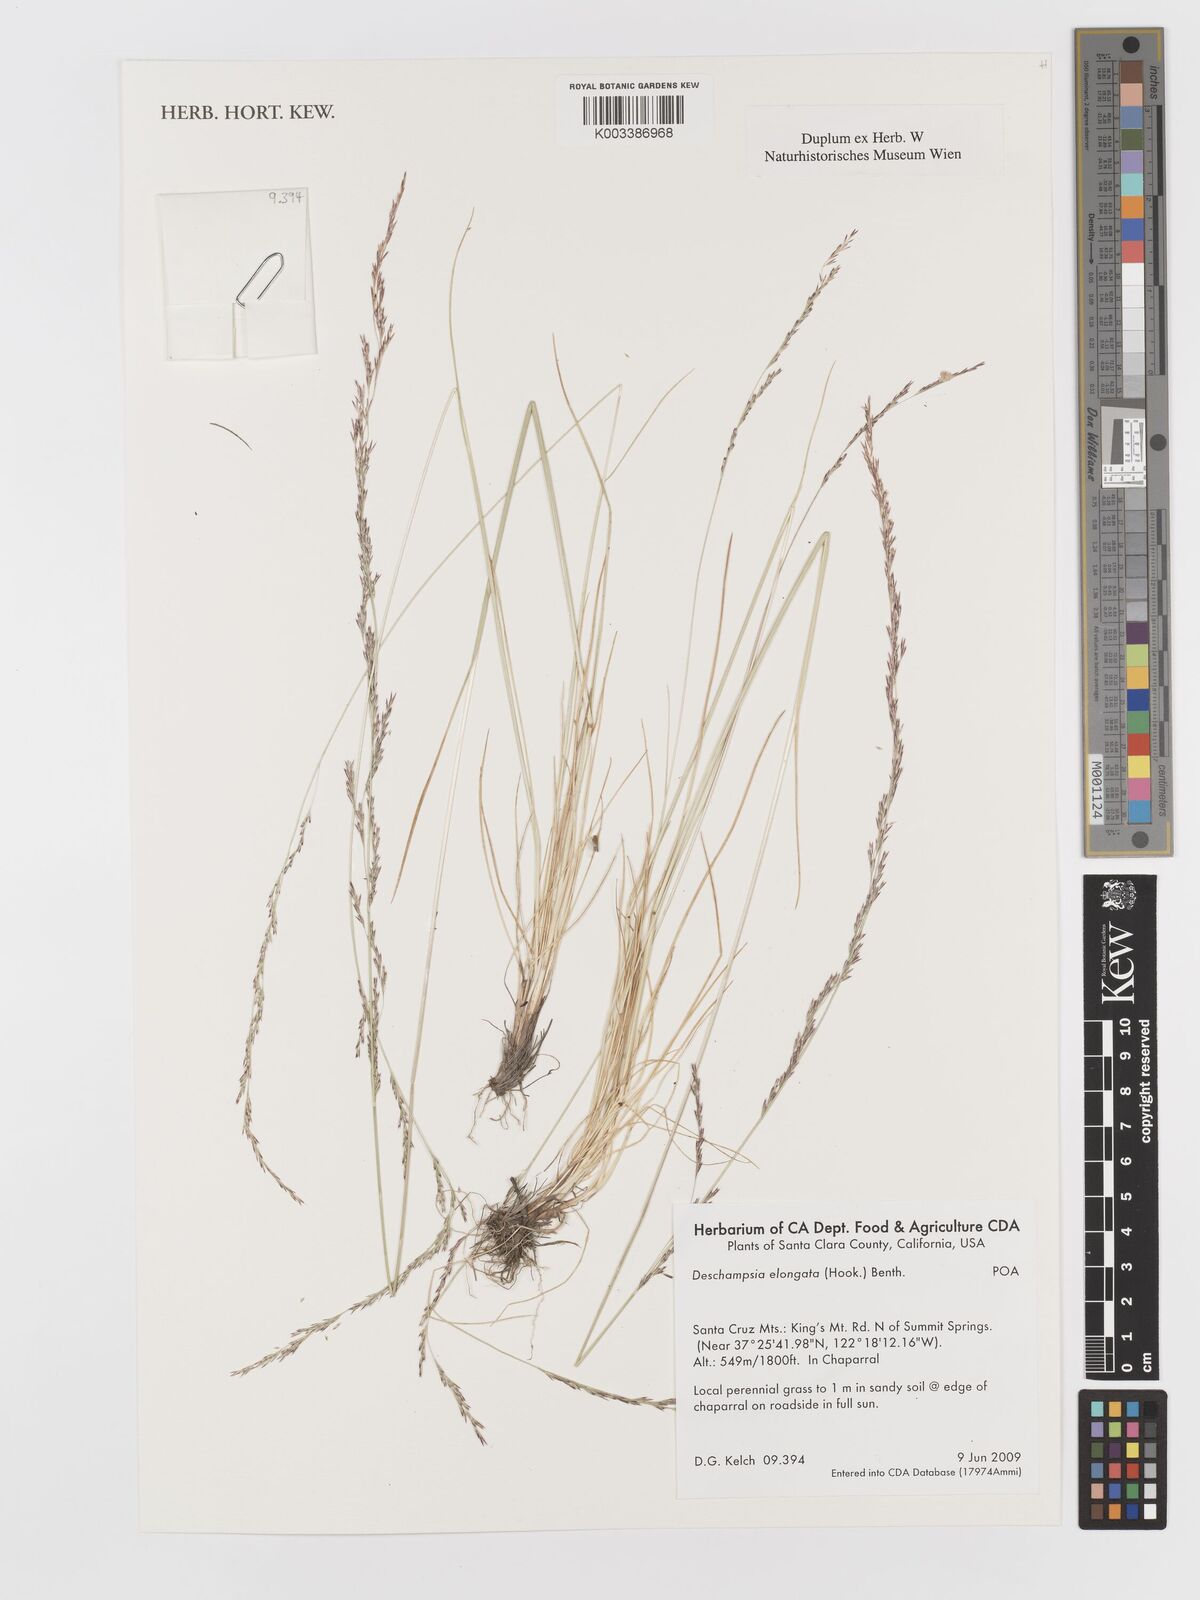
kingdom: Plantae
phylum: Tracheophyta
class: Liliopsida
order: Poales
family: Poaceae
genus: Deschampsia
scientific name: Deschampsia elongata
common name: Slender hairgrass
